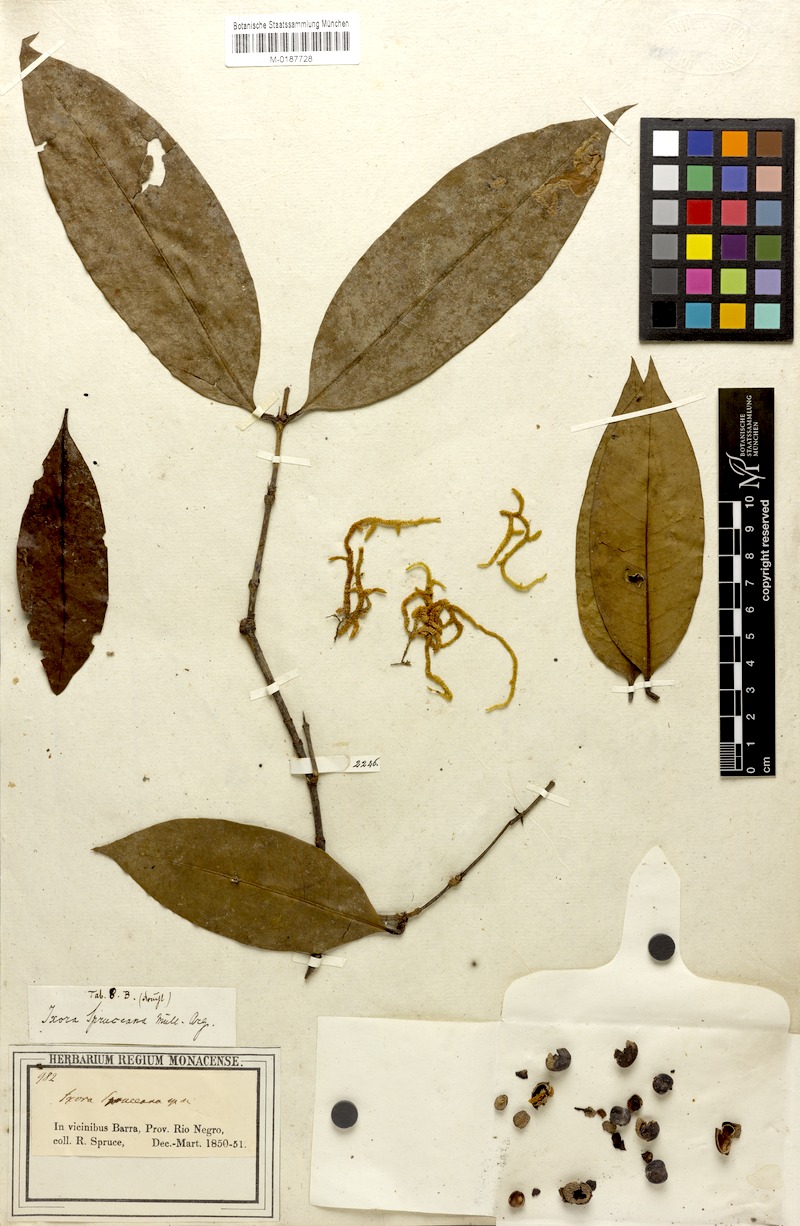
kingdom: Plantae
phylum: Tracheophyta
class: Magnoliopsida
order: Gentianales
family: Rubiaceae
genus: Ixora
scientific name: Ixora spruceana
